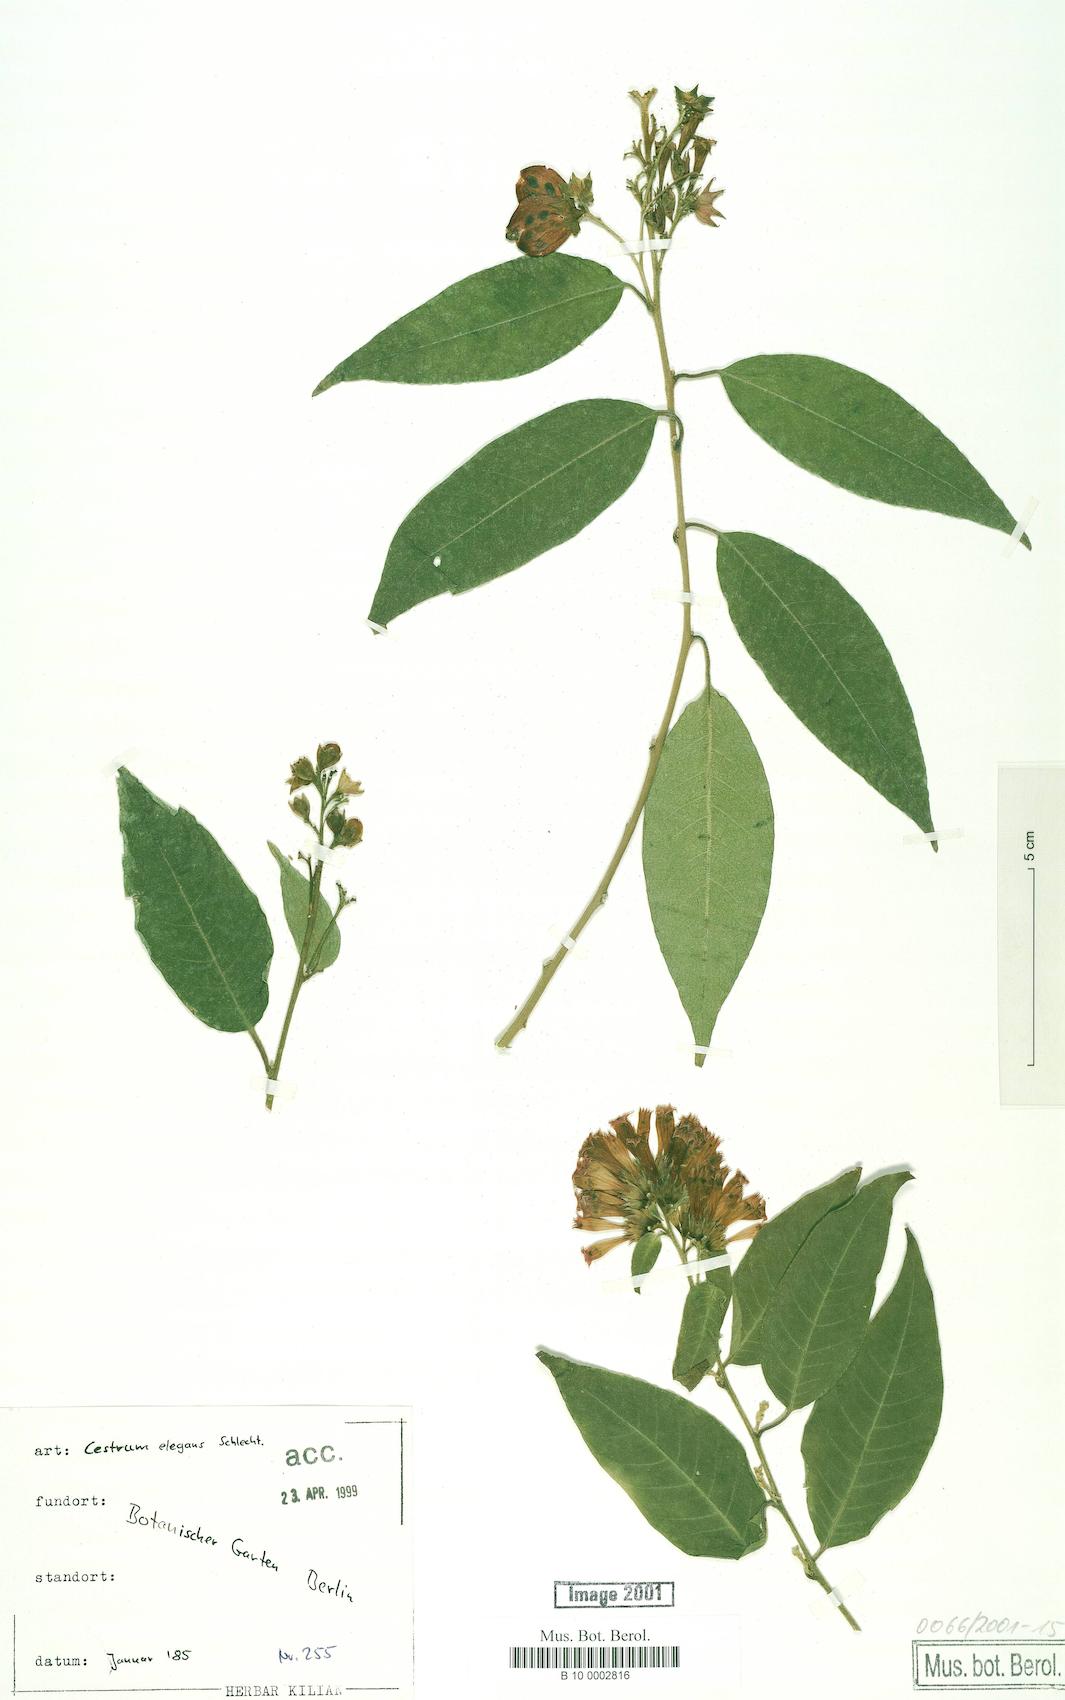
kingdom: Plantae
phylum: Tracheophyta
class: Magnoliopsida
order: Solanales
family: Solanaceae
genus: Cestrum
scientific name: Cestrum elegans
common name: Crimson cestrum
